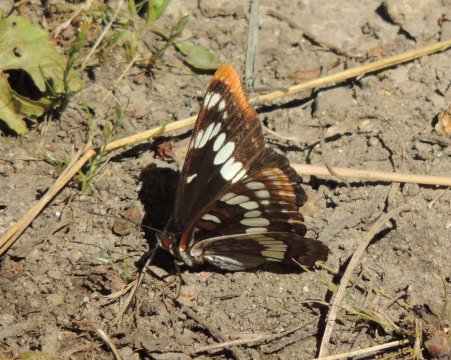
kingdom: Animalia
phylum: Arthropoda
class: Insecta
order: Lepidoptera
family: Nymphalidae
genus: Limenitis
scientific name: Limenitis lorquini
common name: Lorquin's Admiral
